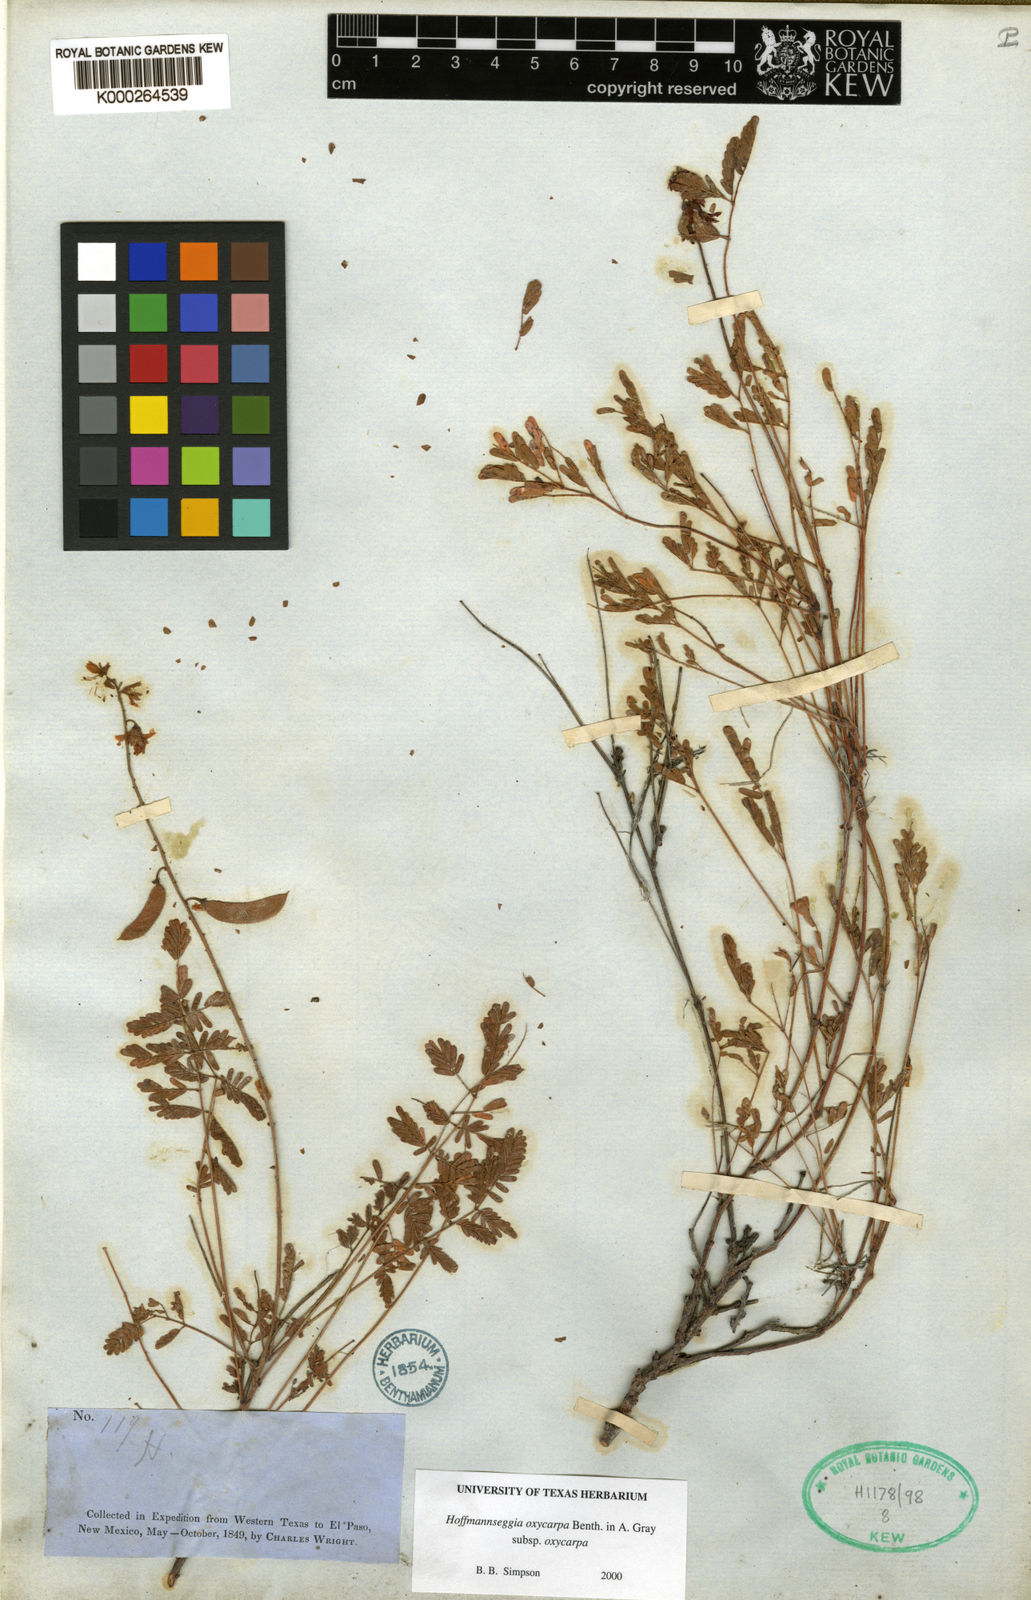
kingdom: Plantae
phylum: Tracheophyta
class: Magnoliopsida
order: Fabales
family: Fabaceae
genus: Hoffmannseggia
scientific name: Hoffmannseggia
